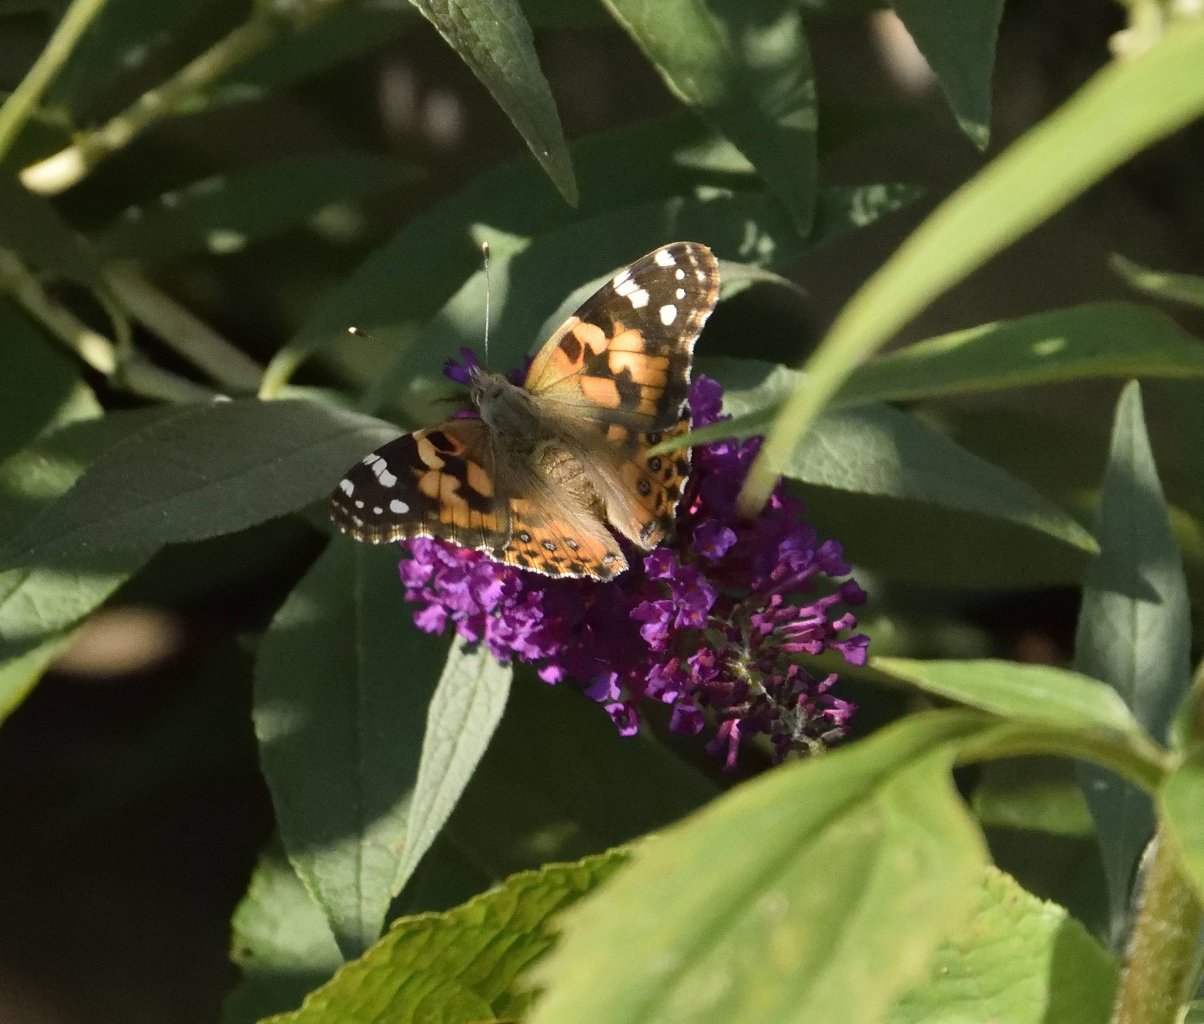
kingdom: Animalia
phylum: Arthropoda
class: Insecta
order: Lepidoptera
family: Nymphalidae
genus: Vanessa
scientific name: Vanessa cardui
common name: Painted Lady
